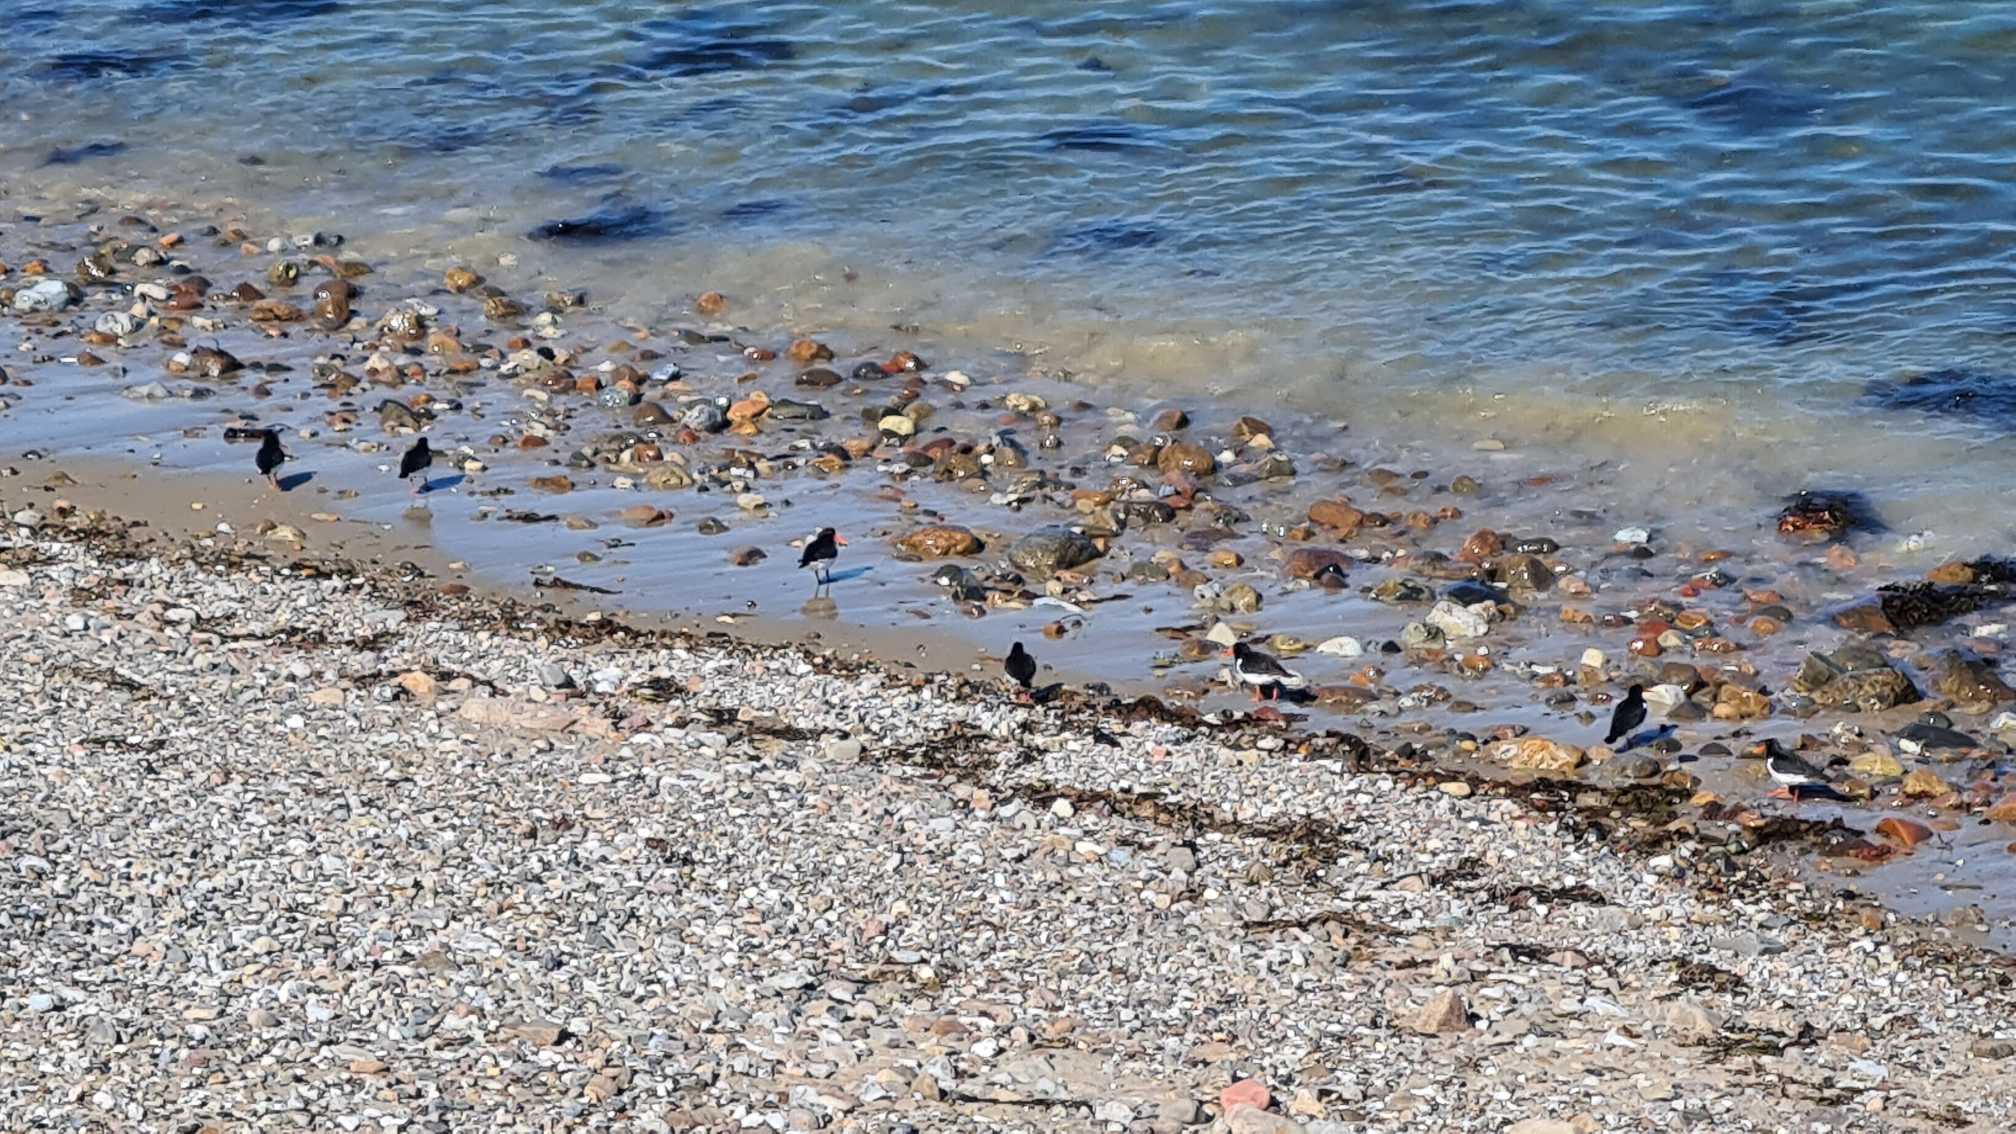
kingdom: Animalia
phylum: Chordata
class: Aves
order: Charadriiformes
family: Haematopodidae
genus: Haematopus
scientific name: Haematopus ostralegus
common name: Strandskade
